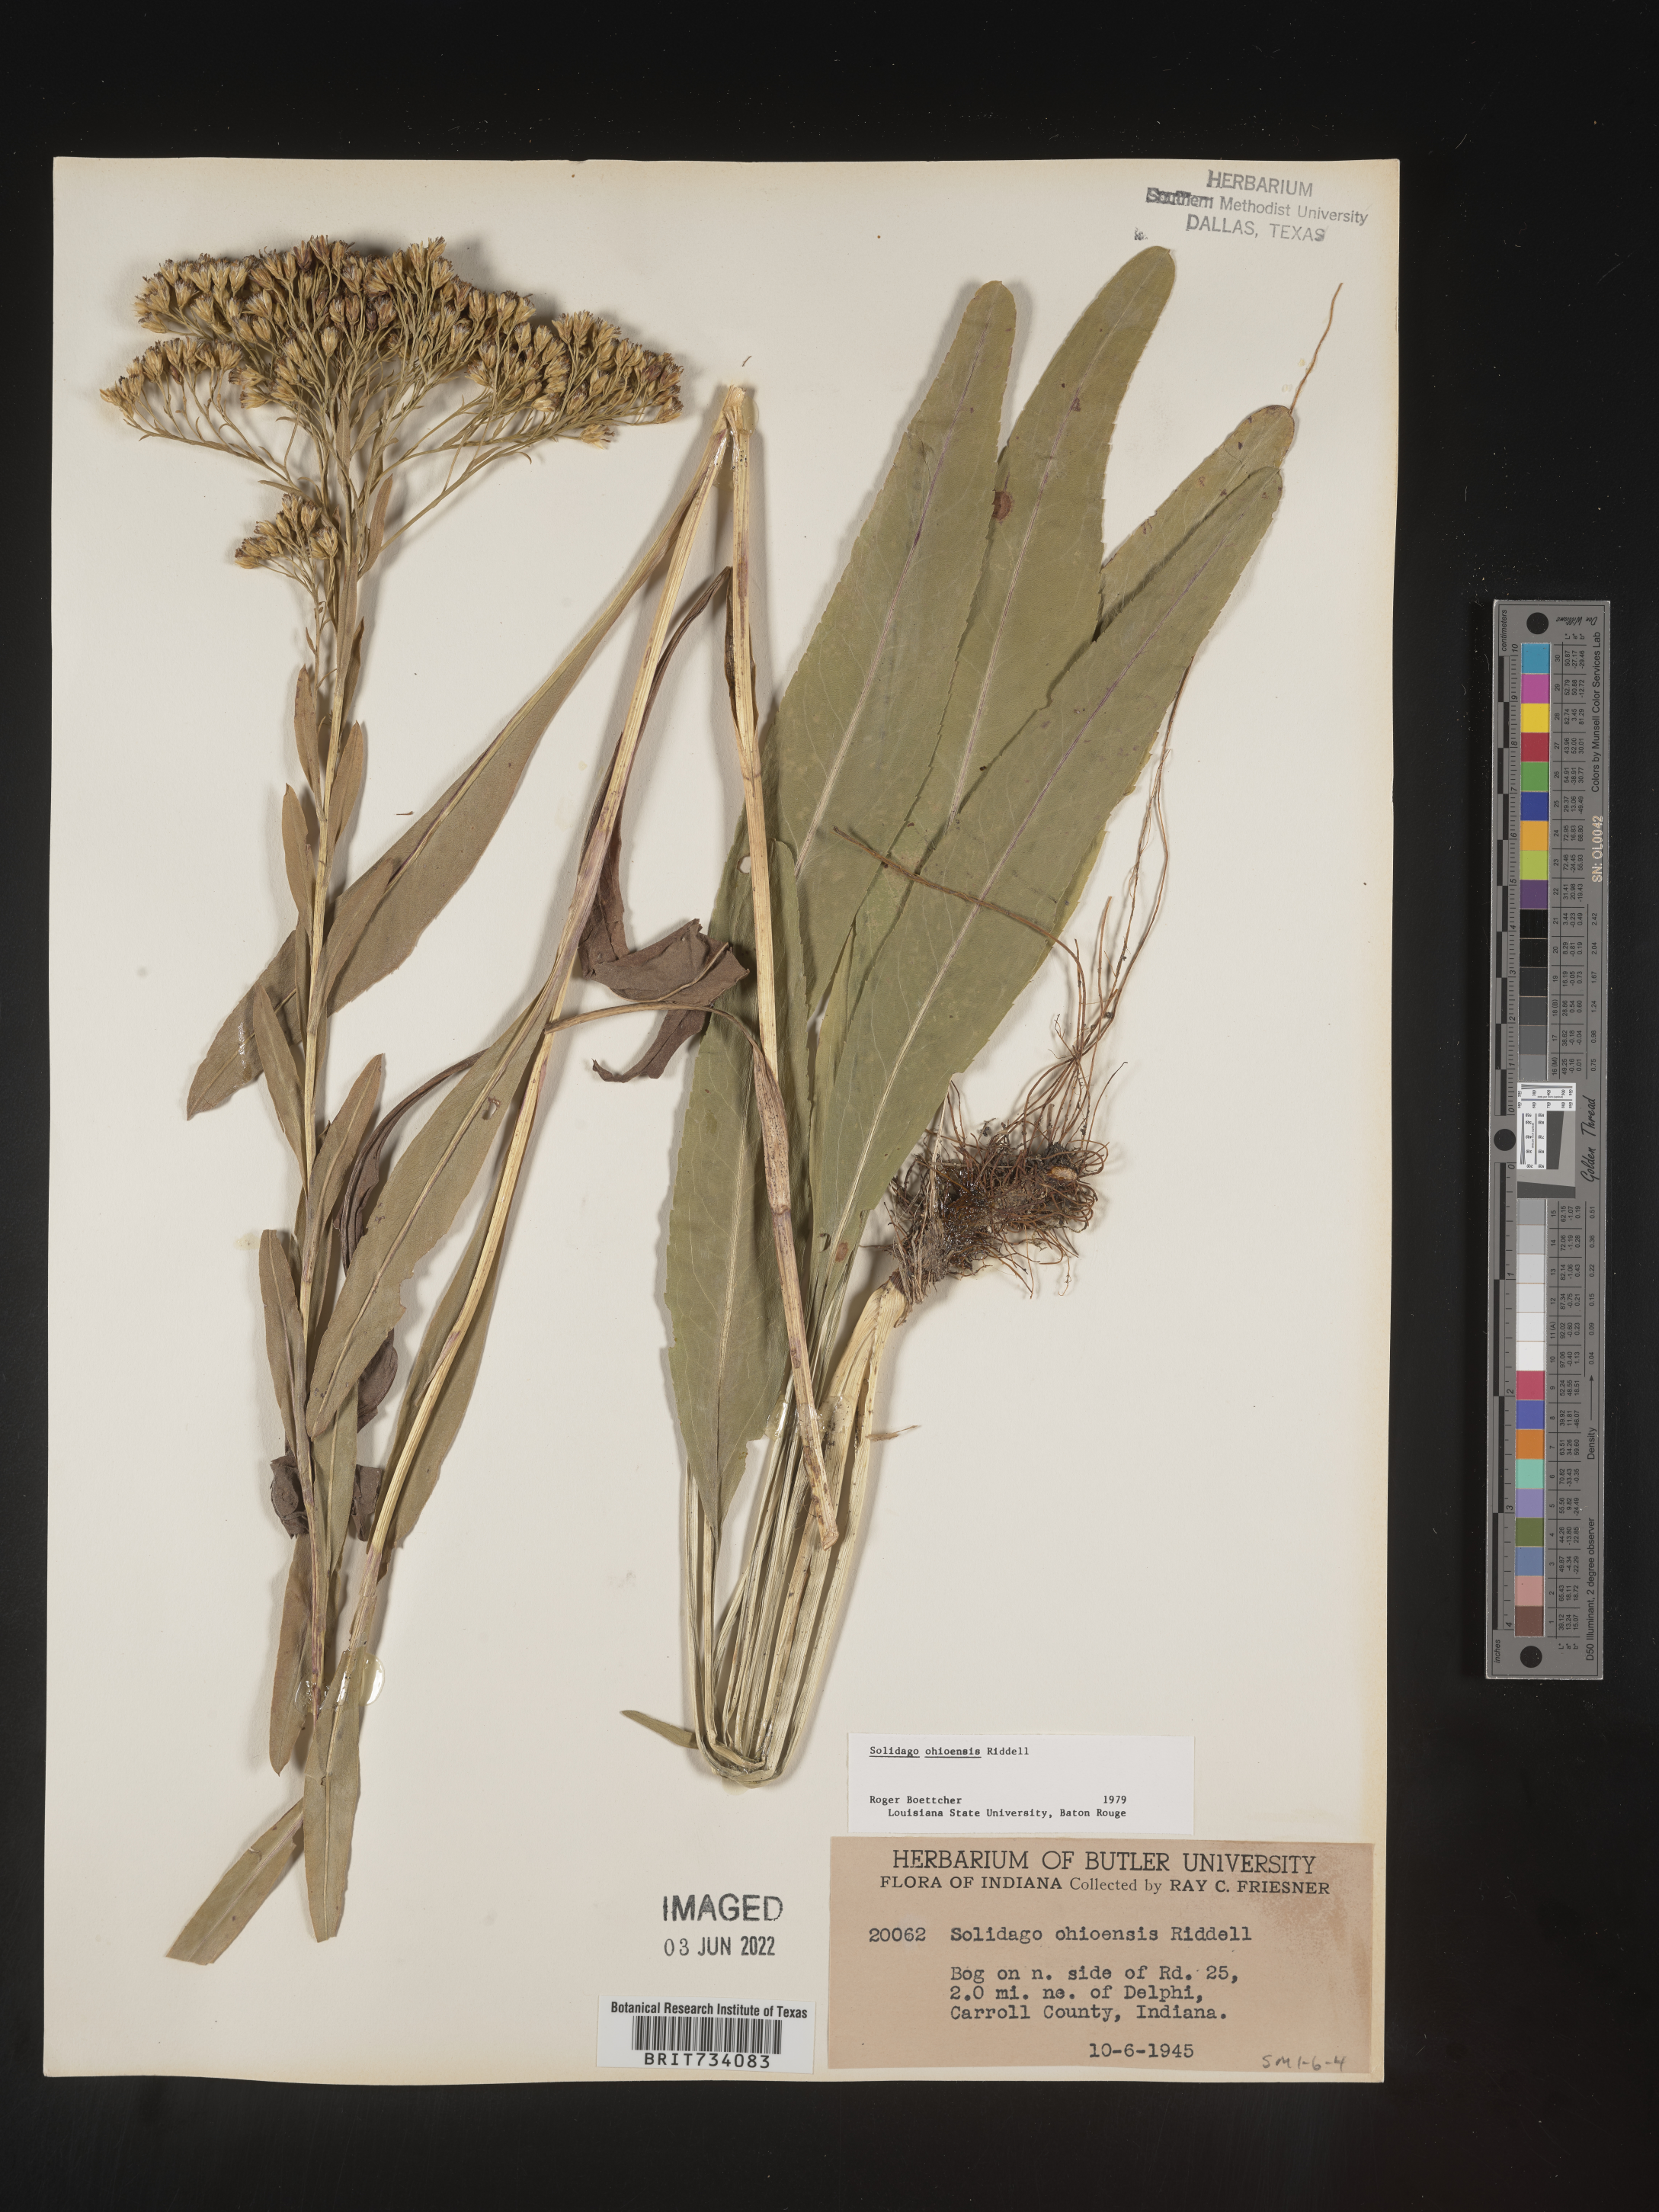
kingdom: Plantae
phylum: Tracheophyta
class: Magnoliopsida
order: Asterales
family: Asteraceae
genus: Solidago
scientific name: Solidago nitida
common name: Shiny goldenrod
